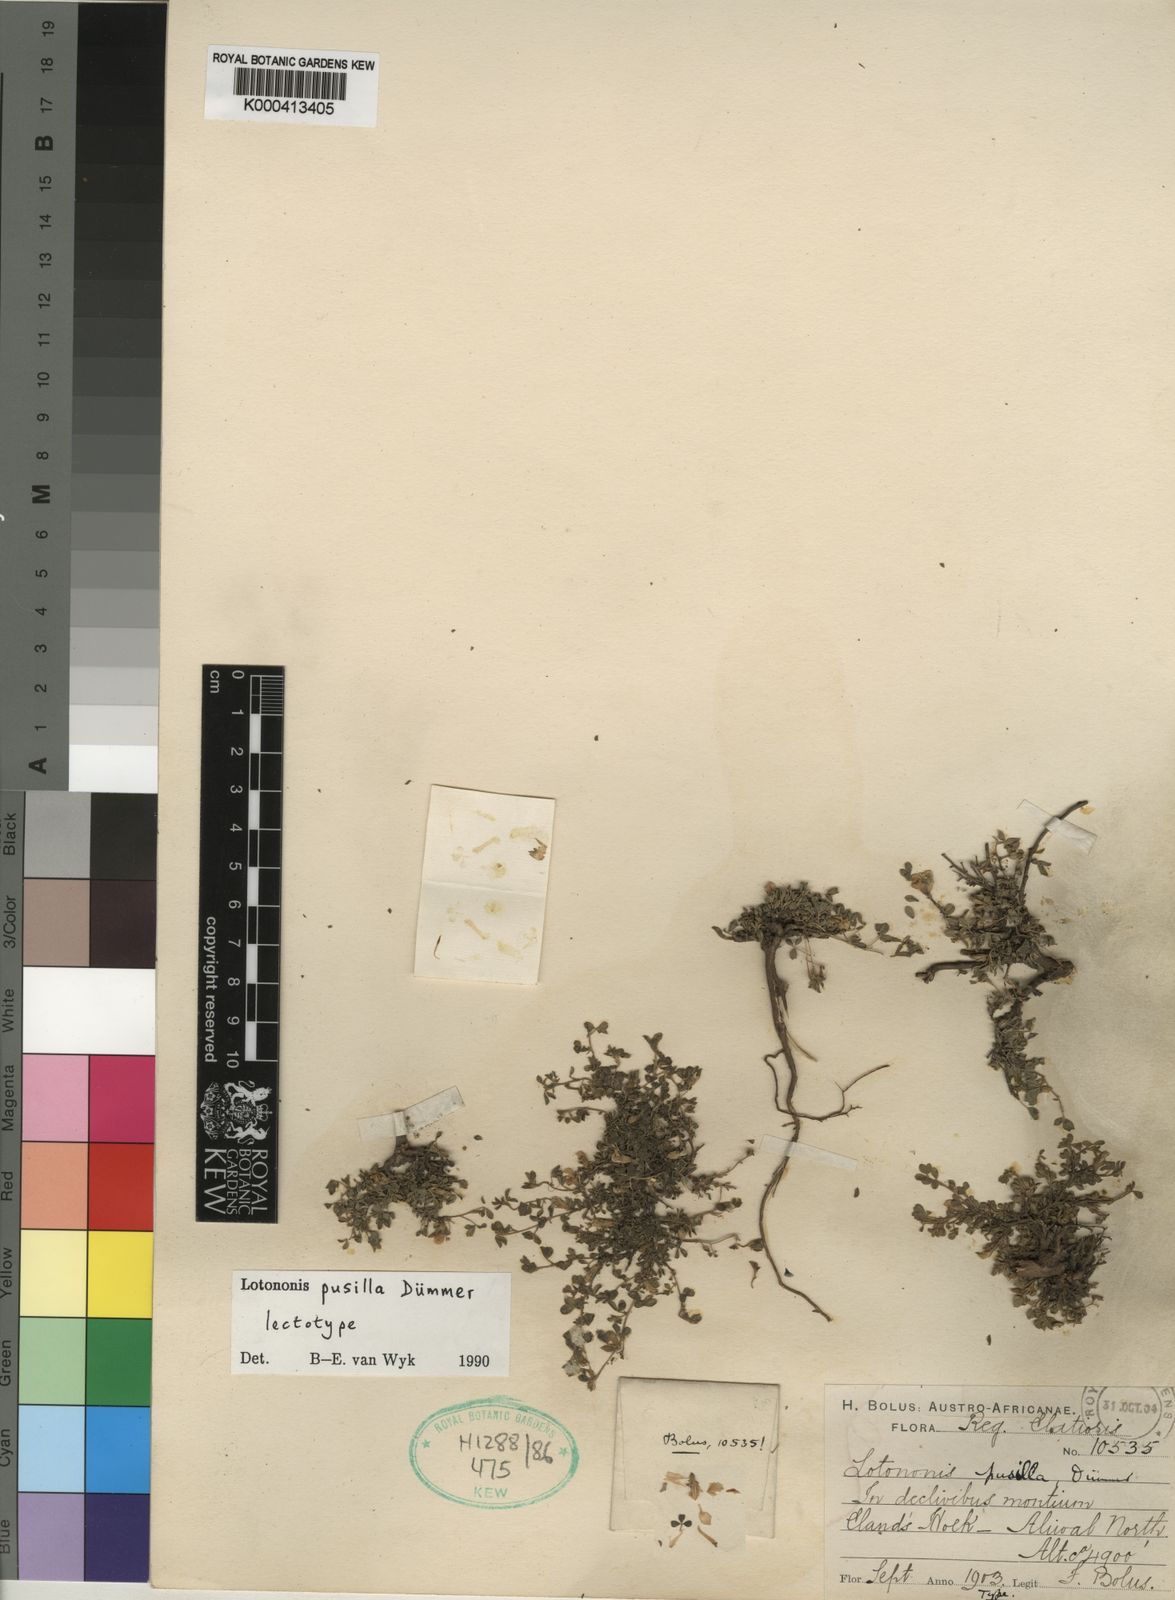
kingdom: Plantae
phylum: Tracheophyta
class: Magnoliopsida
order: Fabales
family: Fabaceae
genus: Leobordea
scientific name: Leobordea pusilla
